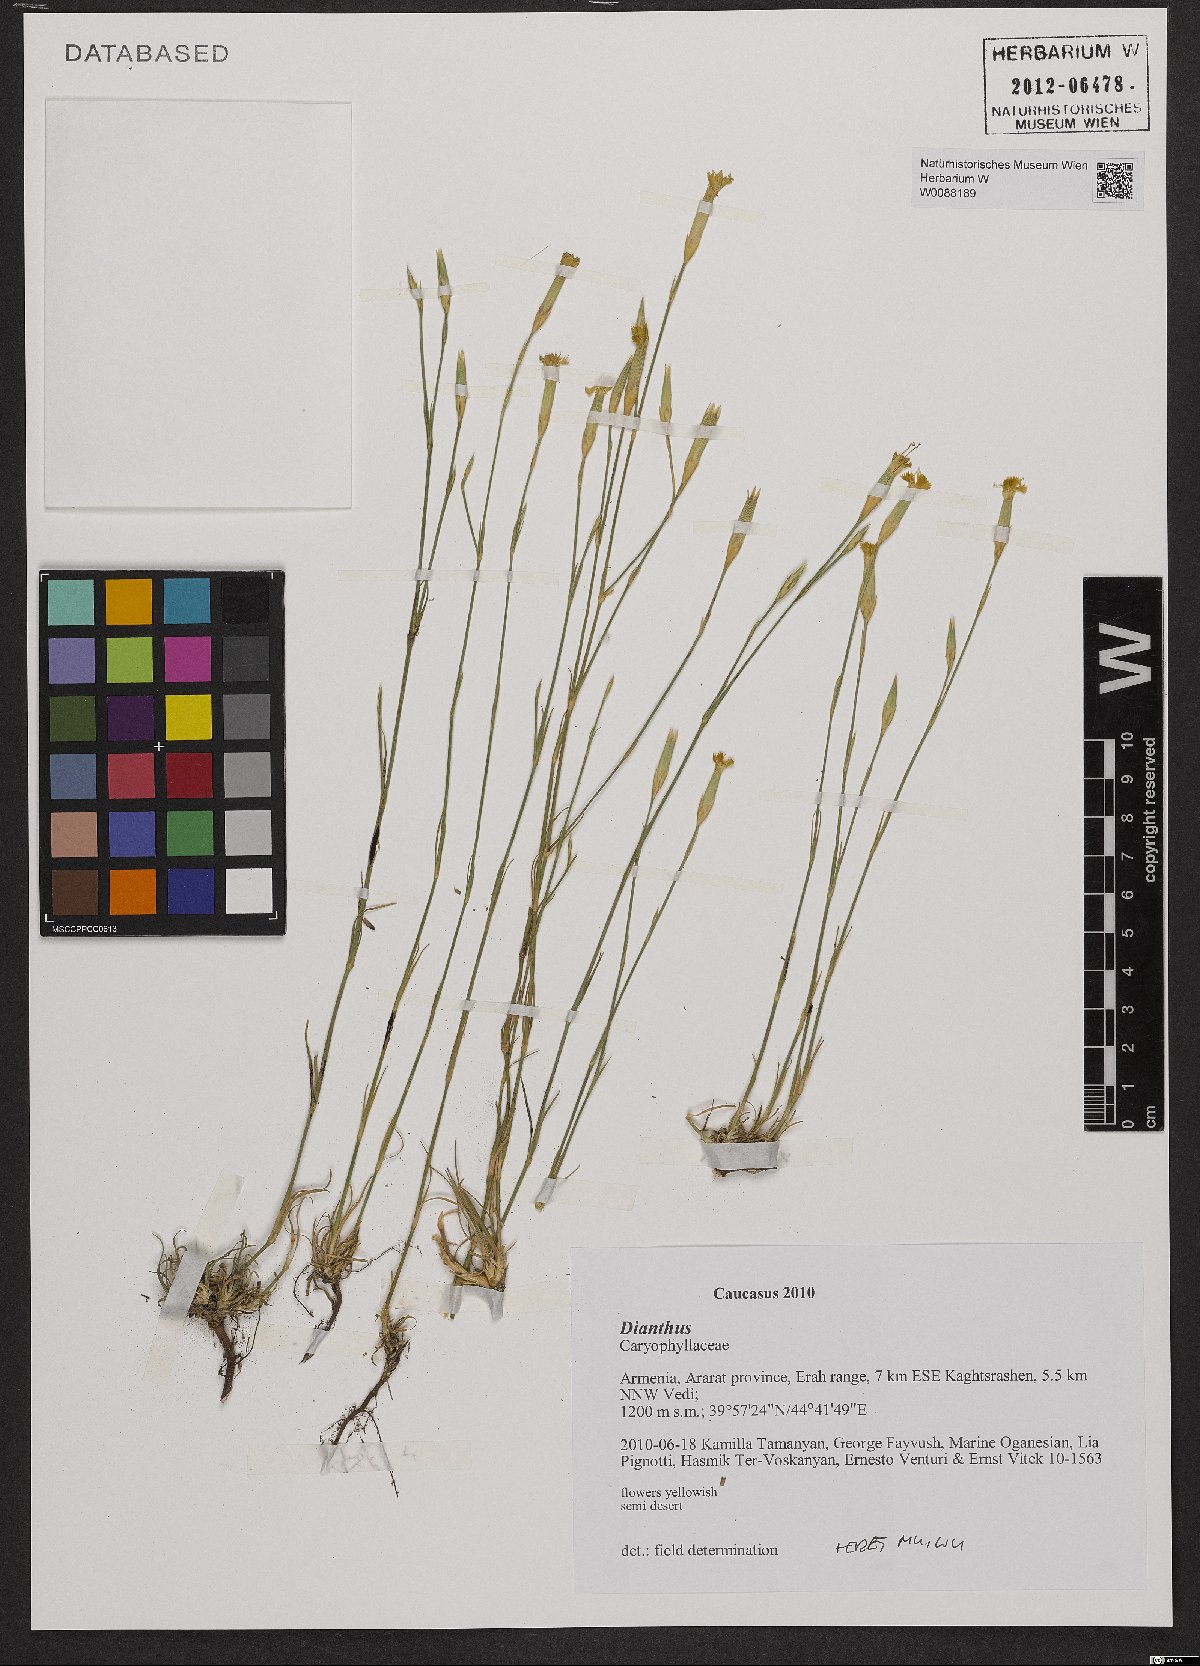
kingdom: Plantae
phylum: Tracheophyta
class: Magnoliopsida
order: Caryophyllales
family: Caryophyllaceae
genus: Dianthus
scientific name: Dianthus
